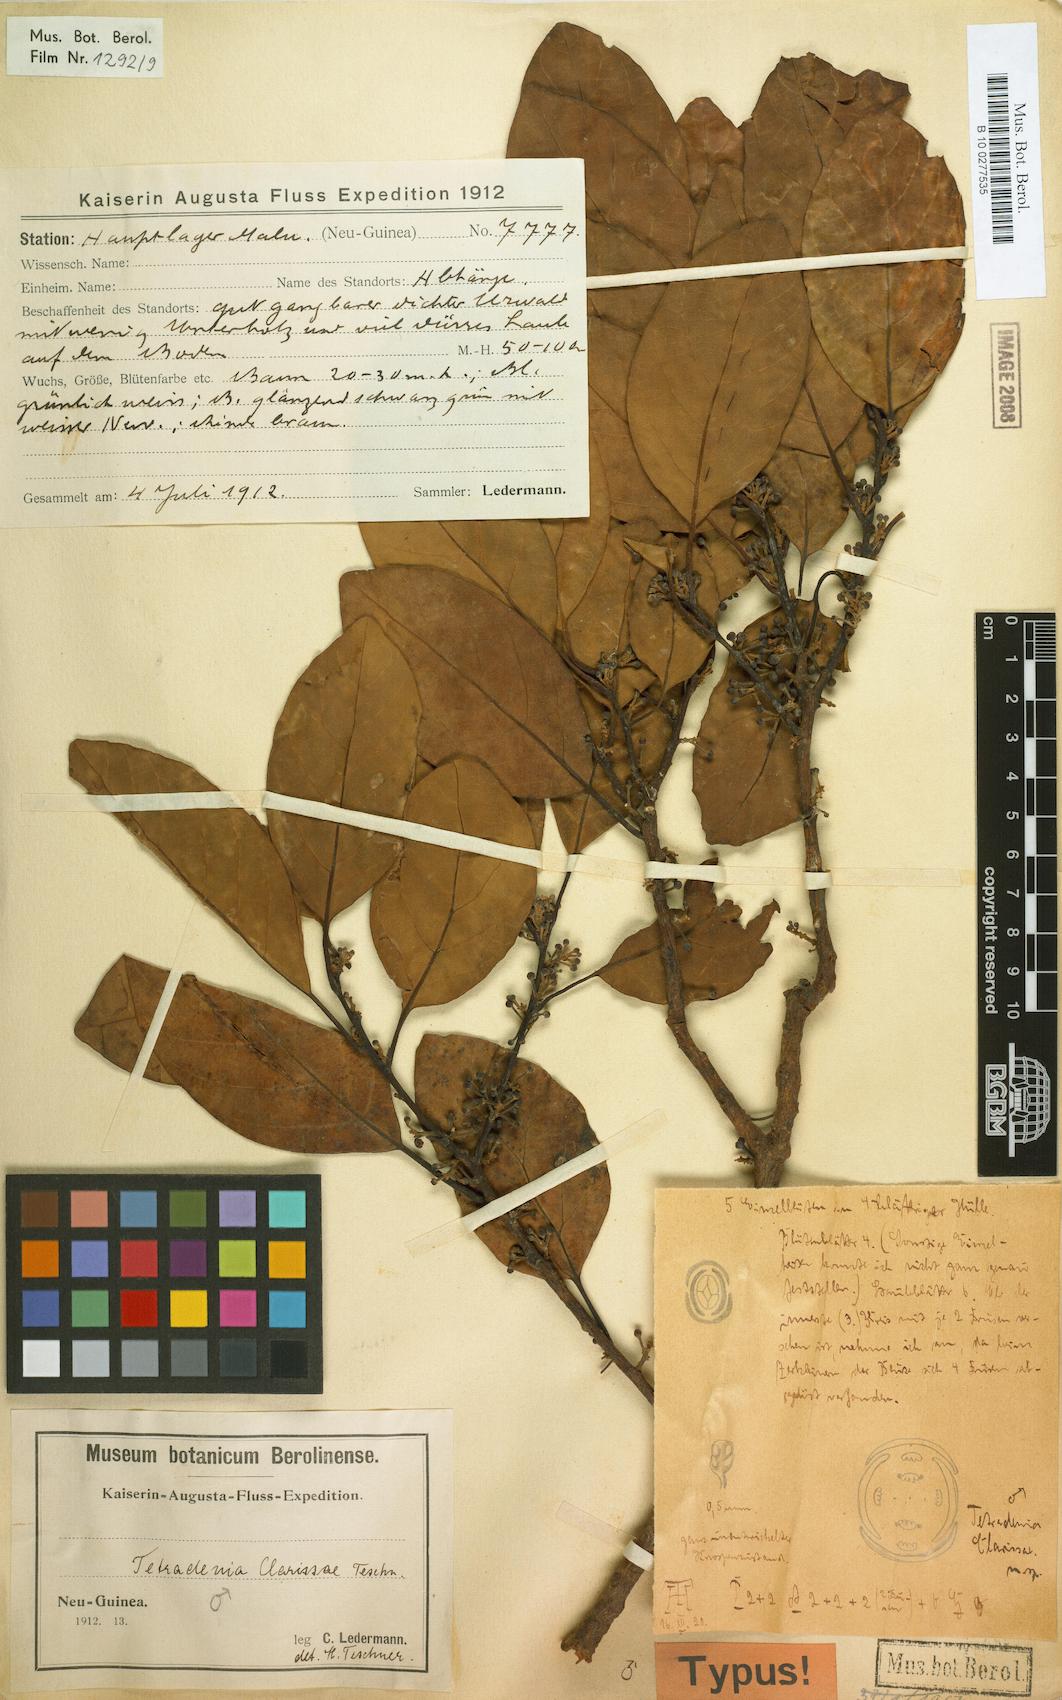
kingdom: Plantae
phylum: Tracheophyta
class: Magnoliopsida
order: Laurales
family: Lauraceae
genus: Litsea
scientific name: Litsea clarissae
